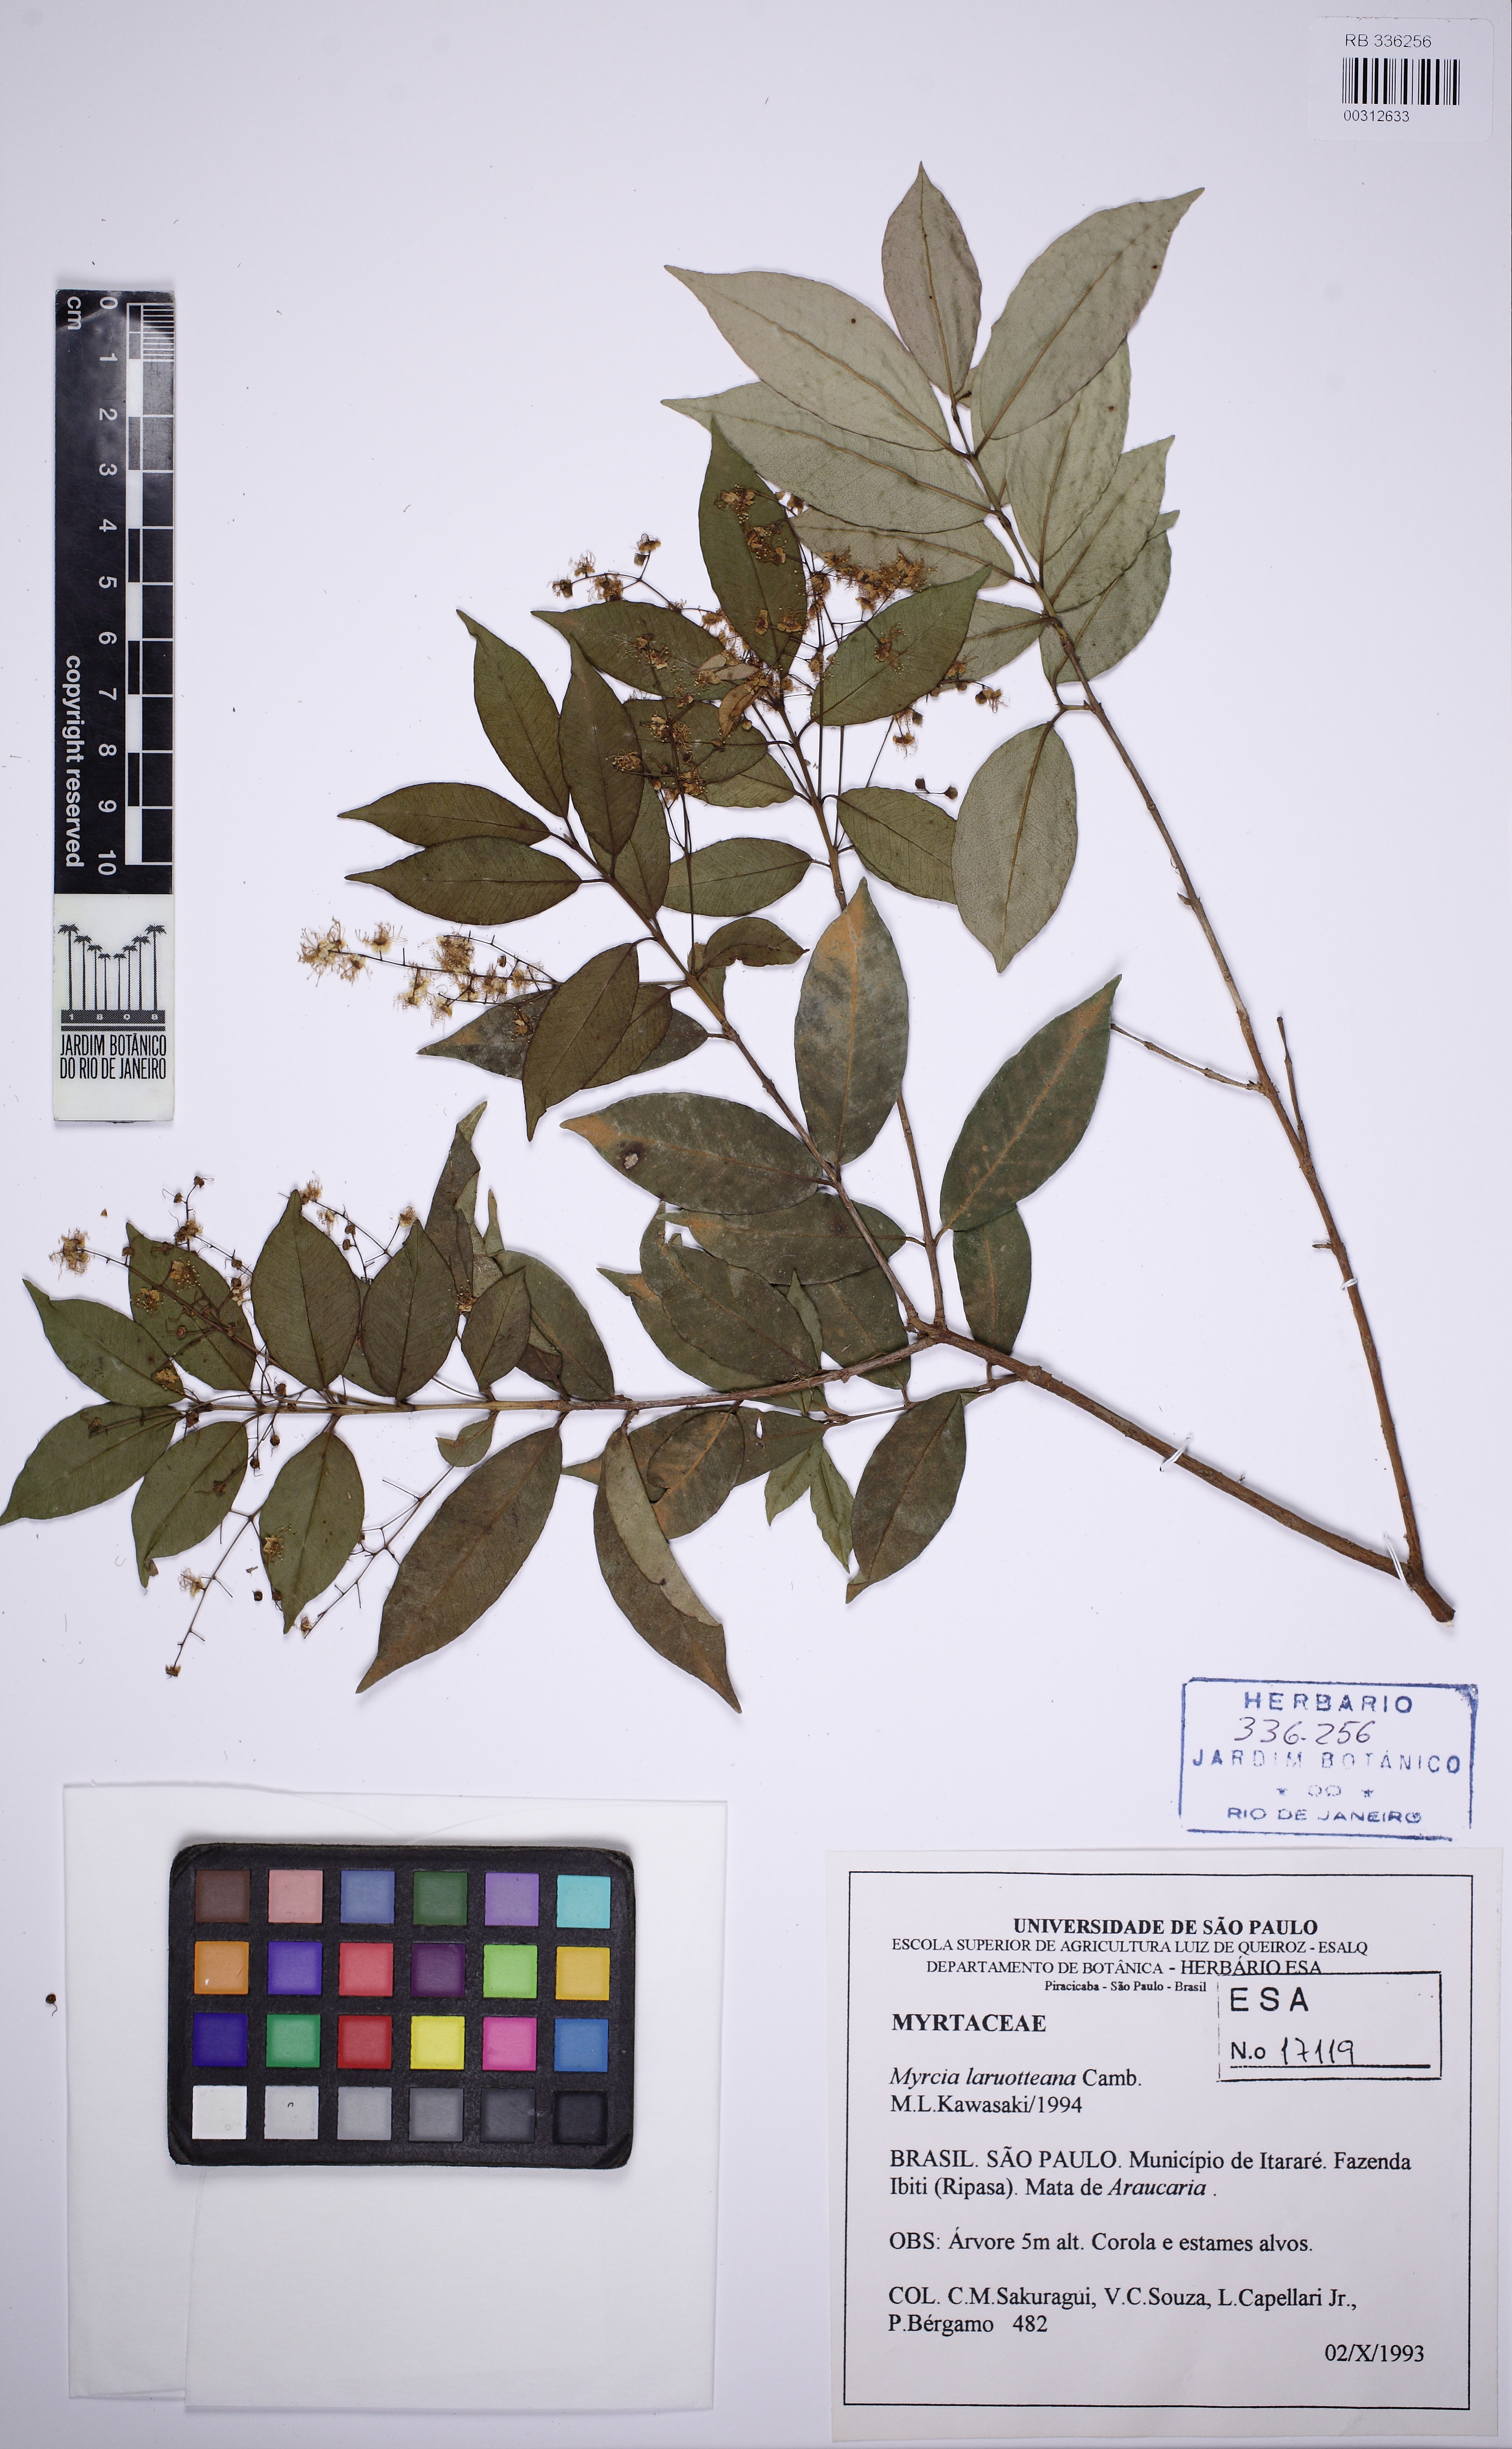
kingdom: Plantae
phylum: Tracheophyta
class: Magnoliopsida
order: Myrtales
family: Myrtaceae
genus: Myrcia
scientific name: Myrcia laruotteana
